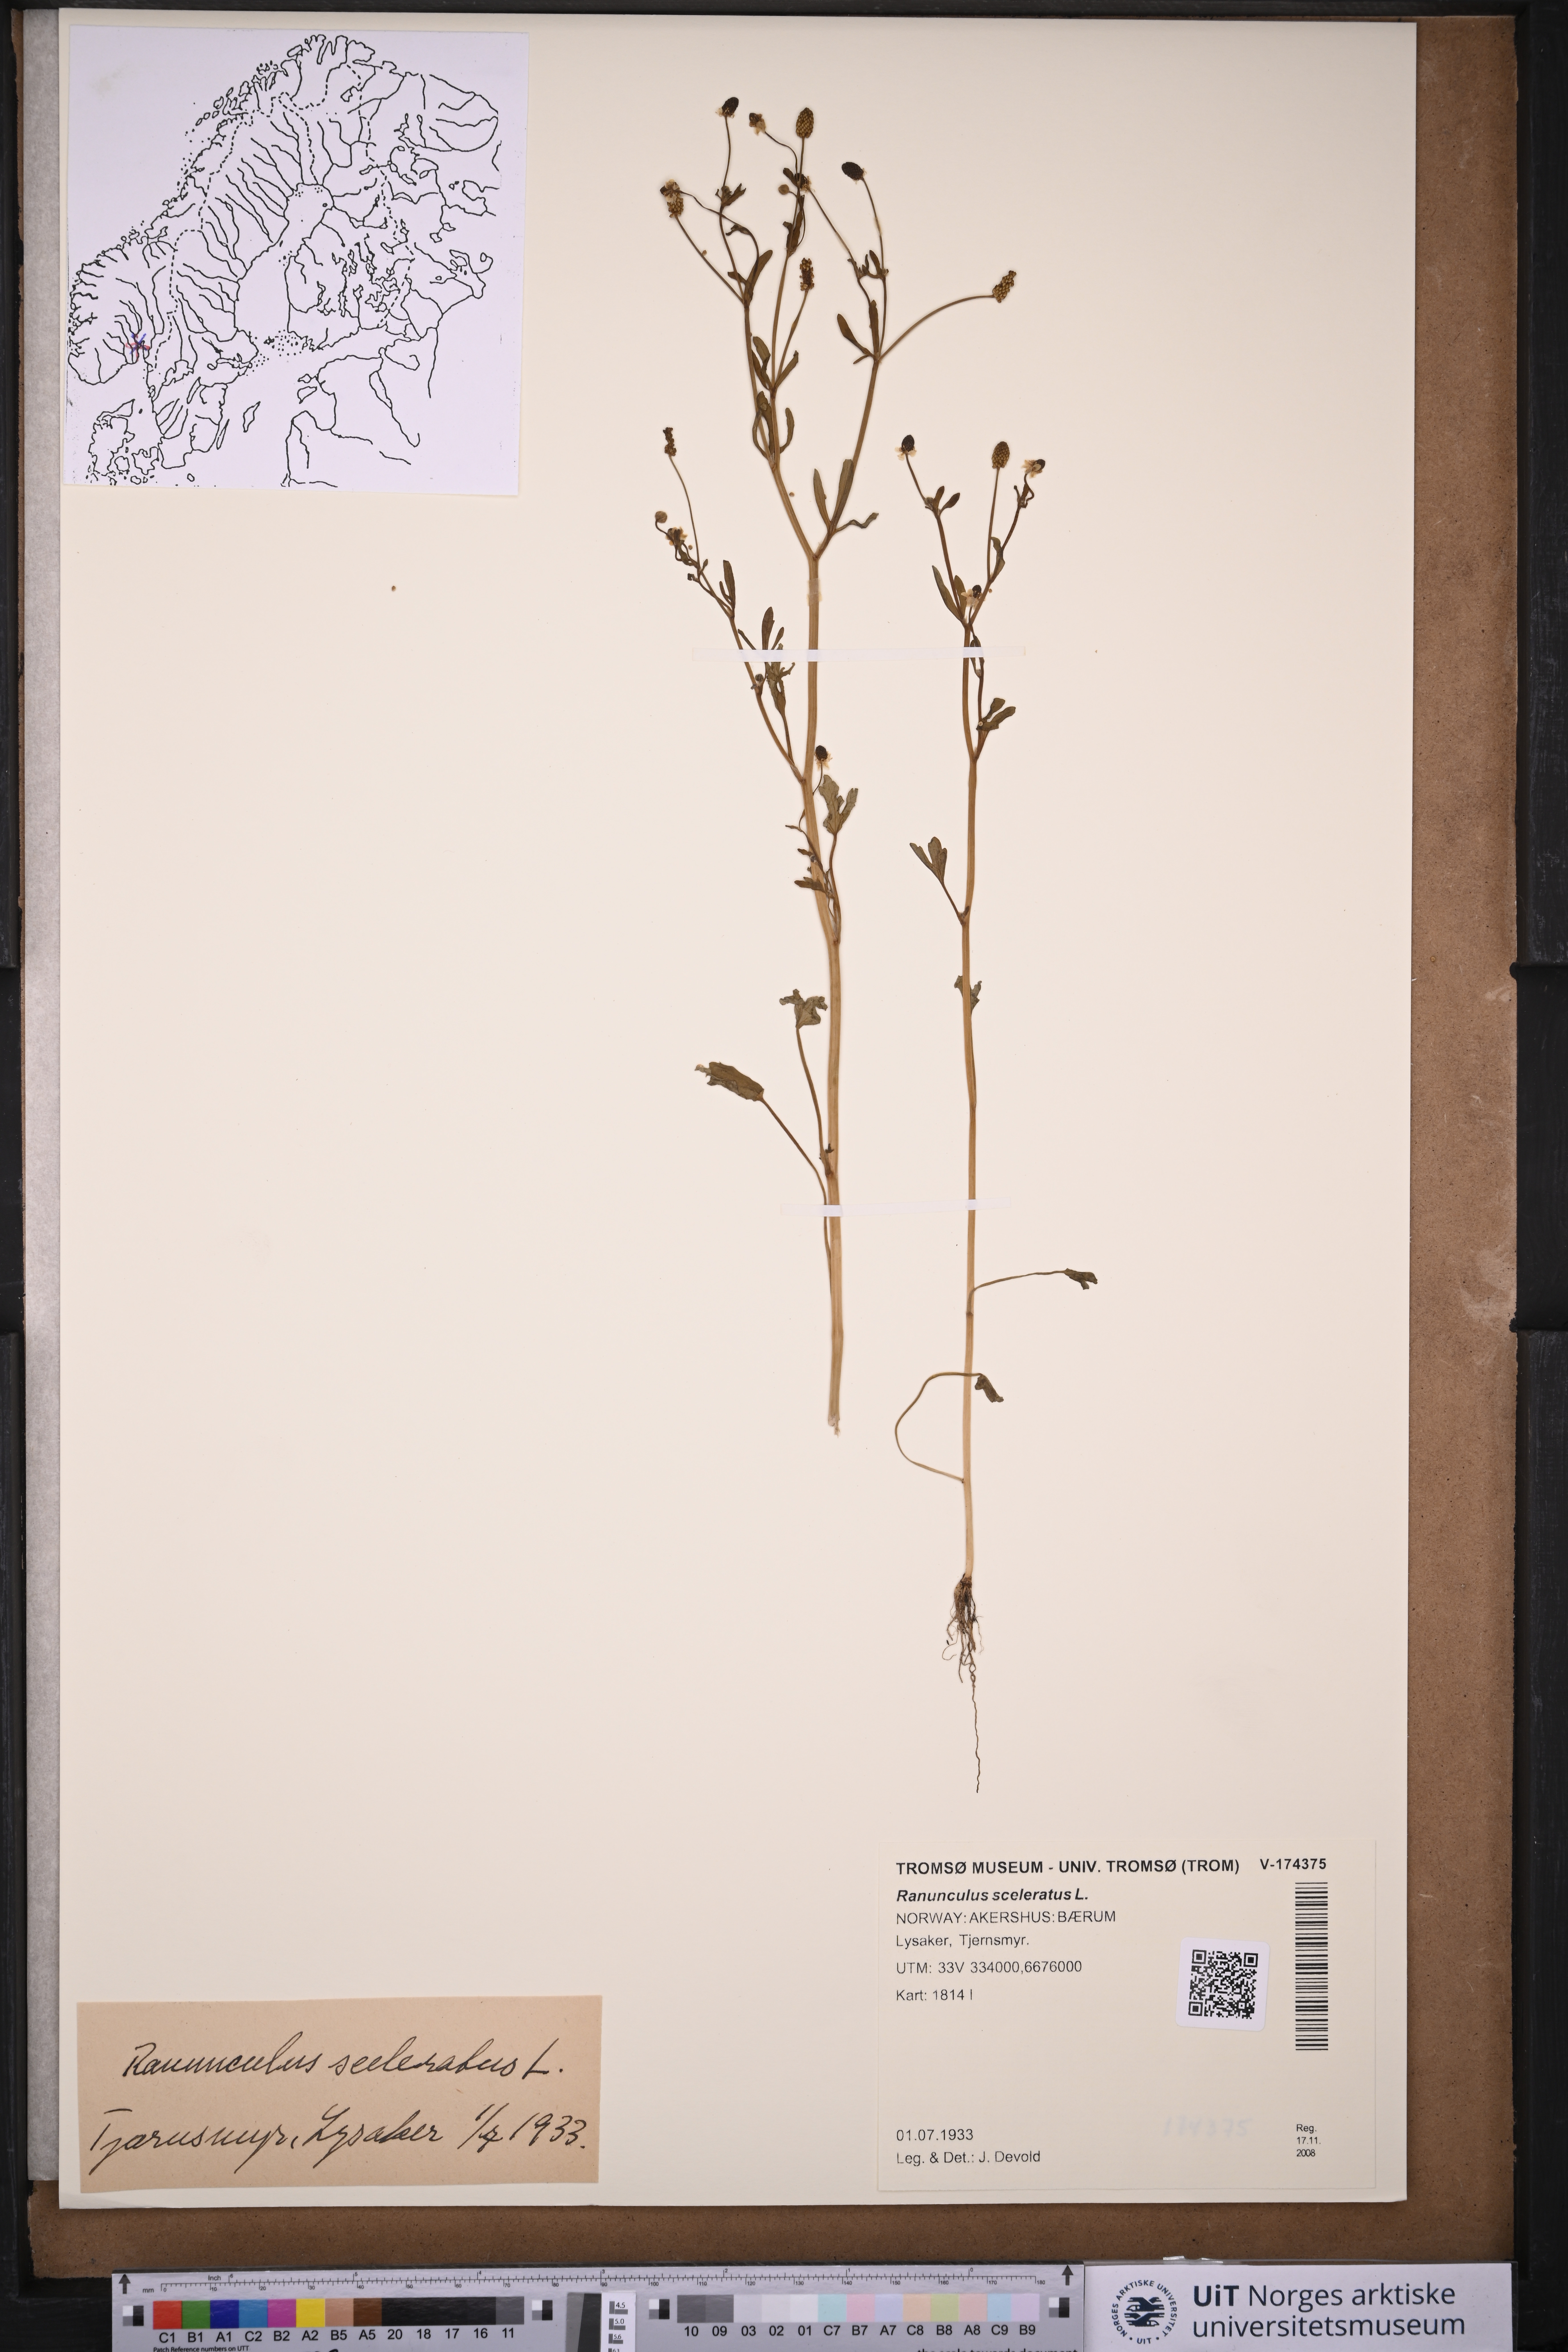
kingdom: Plantae
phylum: Tracheophyta
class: Magnoliopsida
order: Ranunculales
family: Ranunculaceae
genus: Ranunculus
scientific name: Ranunculus sceleratus
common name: Celery-leaved buttercup
